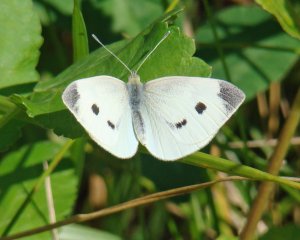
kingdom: Animalia
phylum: Arthropoda
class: Insecta
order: Lepidoptera
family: Pieridae
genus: Pieris
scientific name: Pieris rapae
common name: Cabbage White
